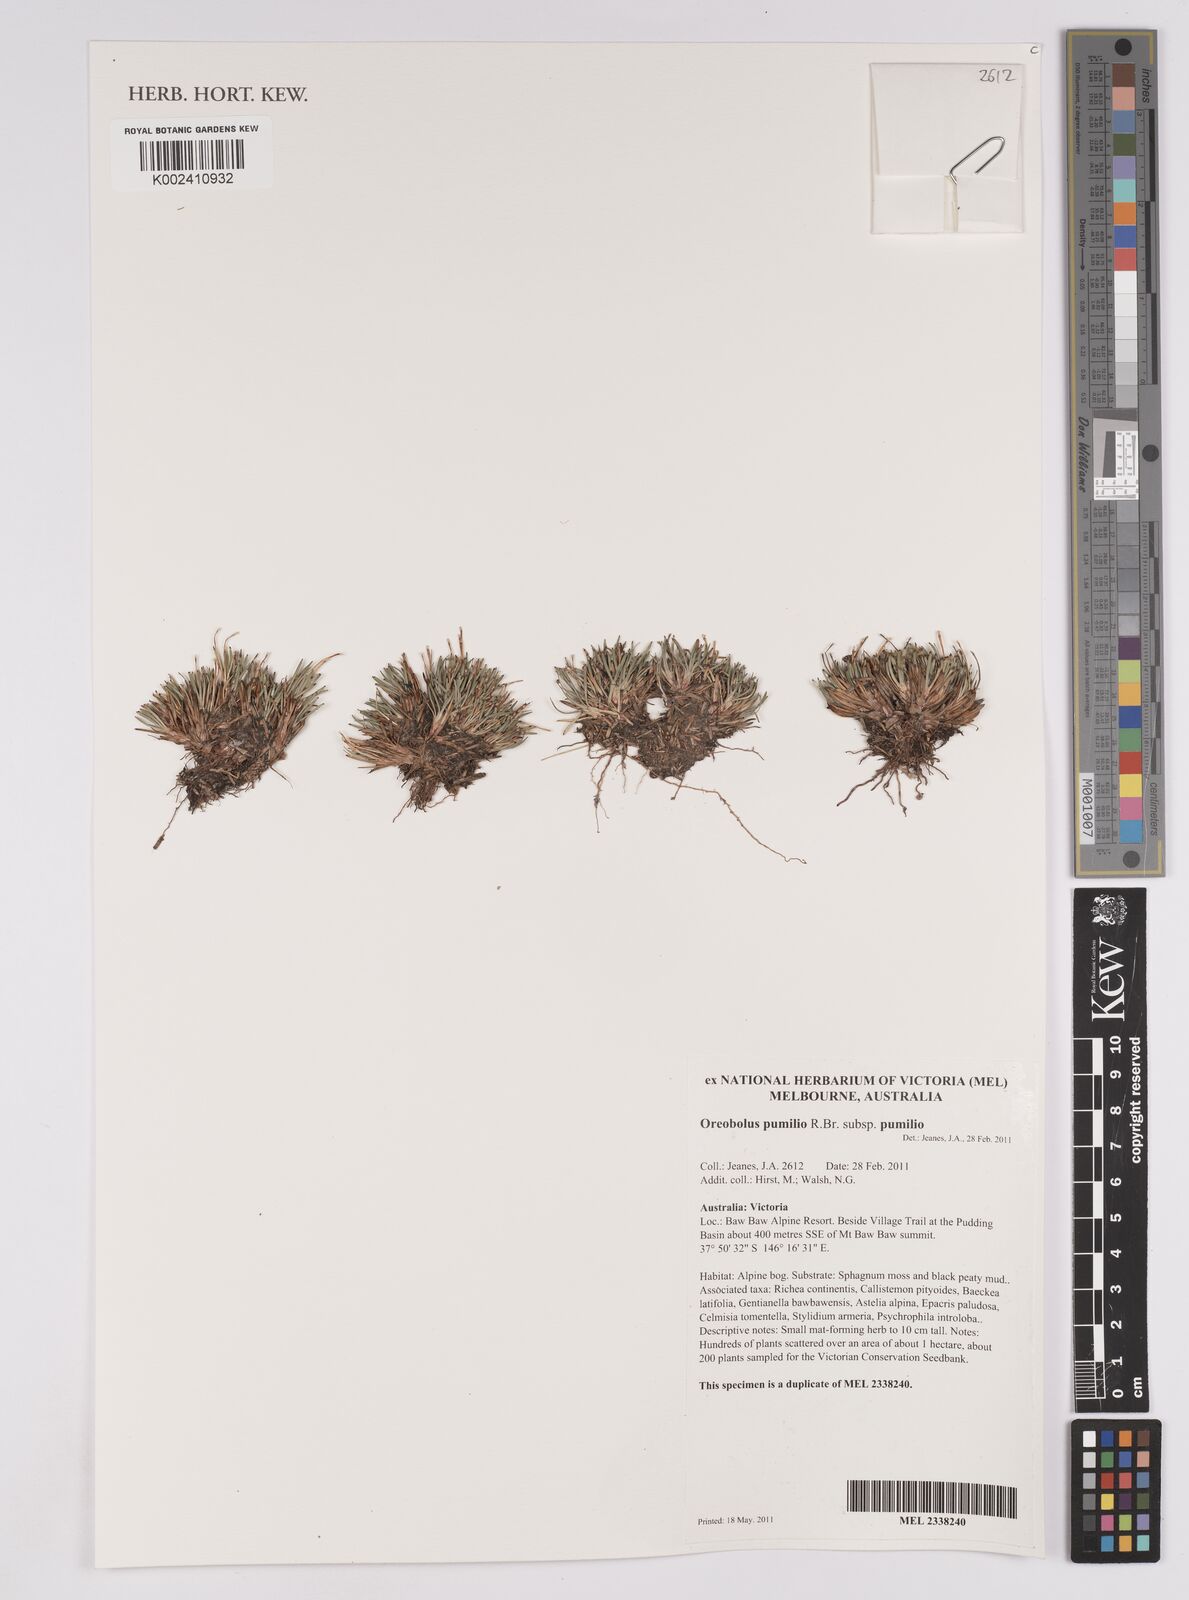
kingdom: Plantae
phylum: Tracheophyta
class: Liliopsida
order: Poales
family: Cyperaceae
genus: Oreobolus
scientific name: Oreobolus pumilio
